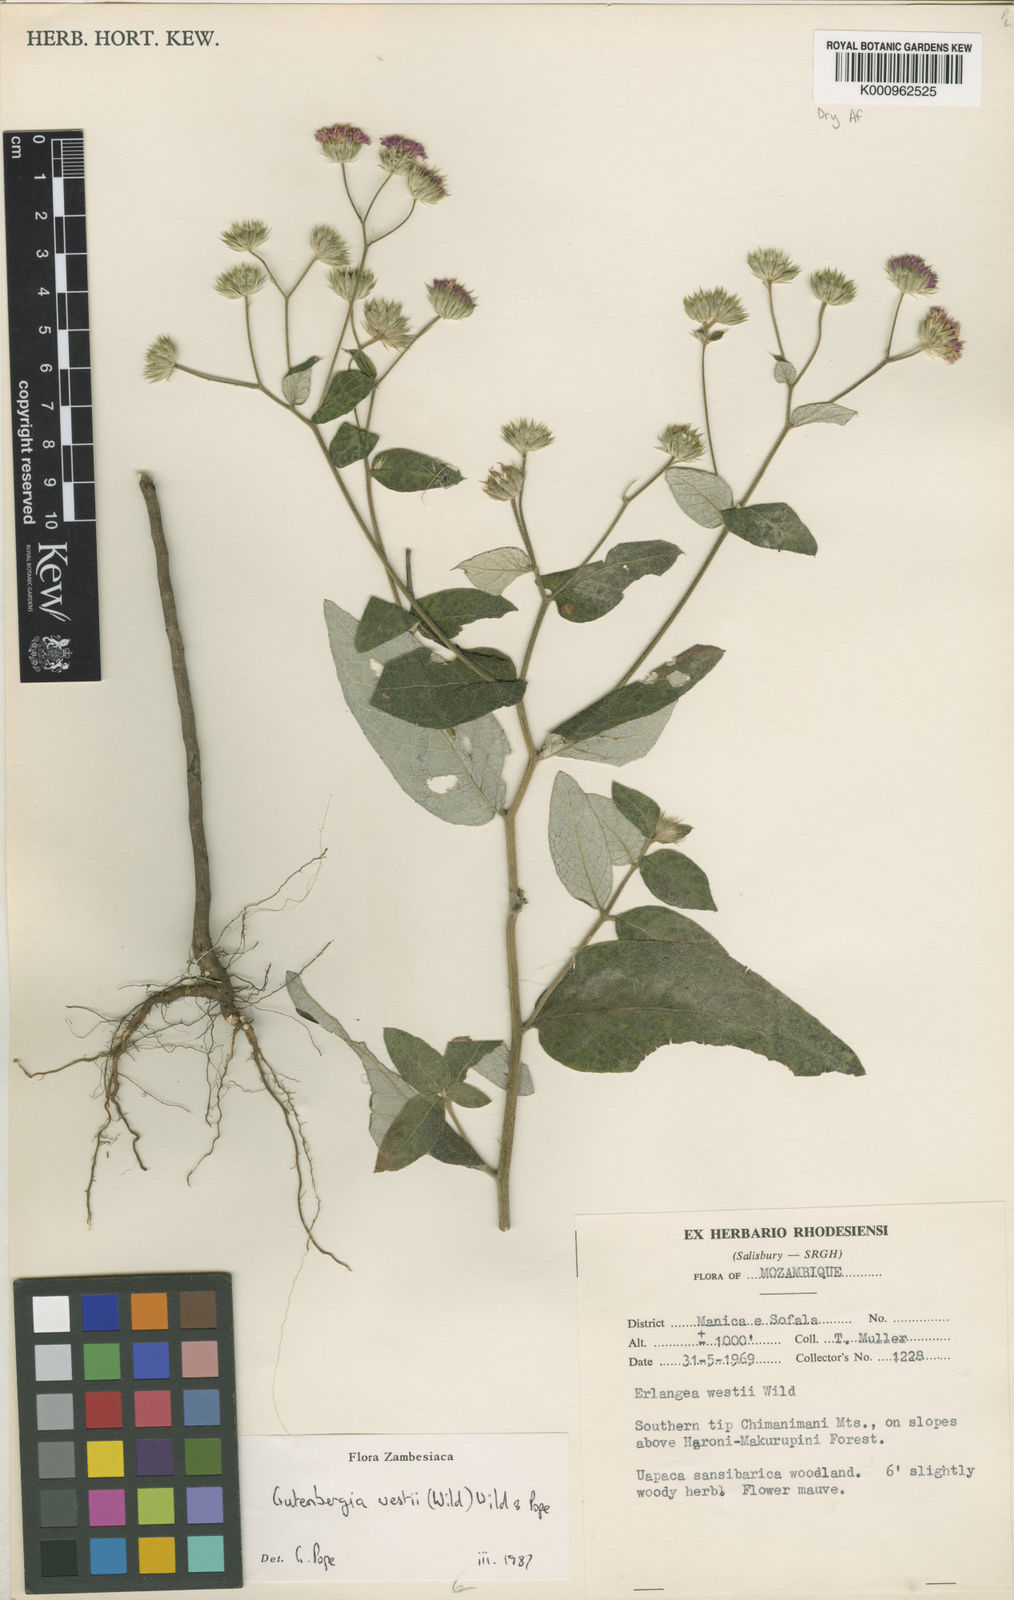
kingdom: Plantae
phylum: Tracheophyta
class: Magnoliopsida
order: Asterales
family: Asteraceae
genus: Gutenbergia
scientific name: Gutenbergia westii
